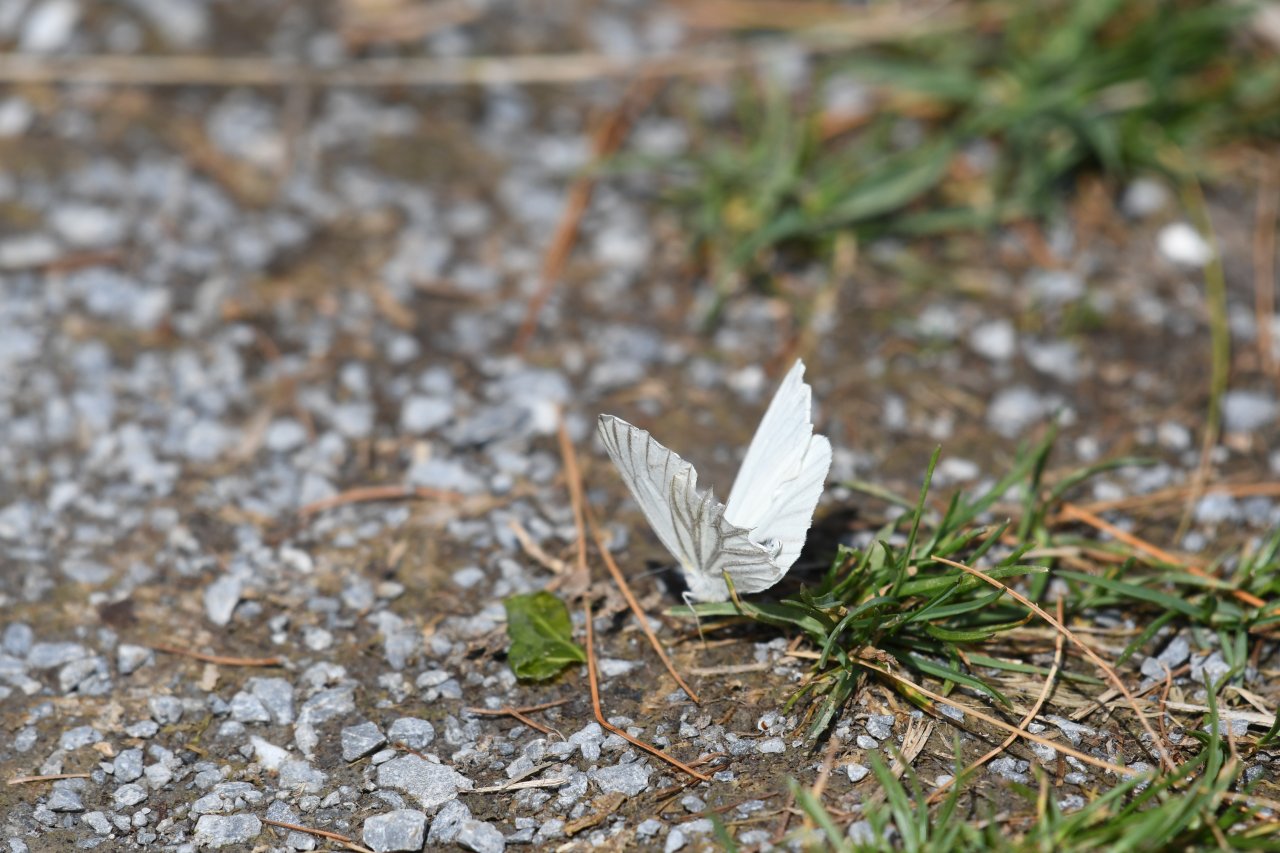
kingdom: Animalia
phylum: Arthropoda
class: Insecta
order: Lepidoptera
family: Pieridae
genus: Pieris
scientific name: Pieris oleracea
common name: Mustard White
